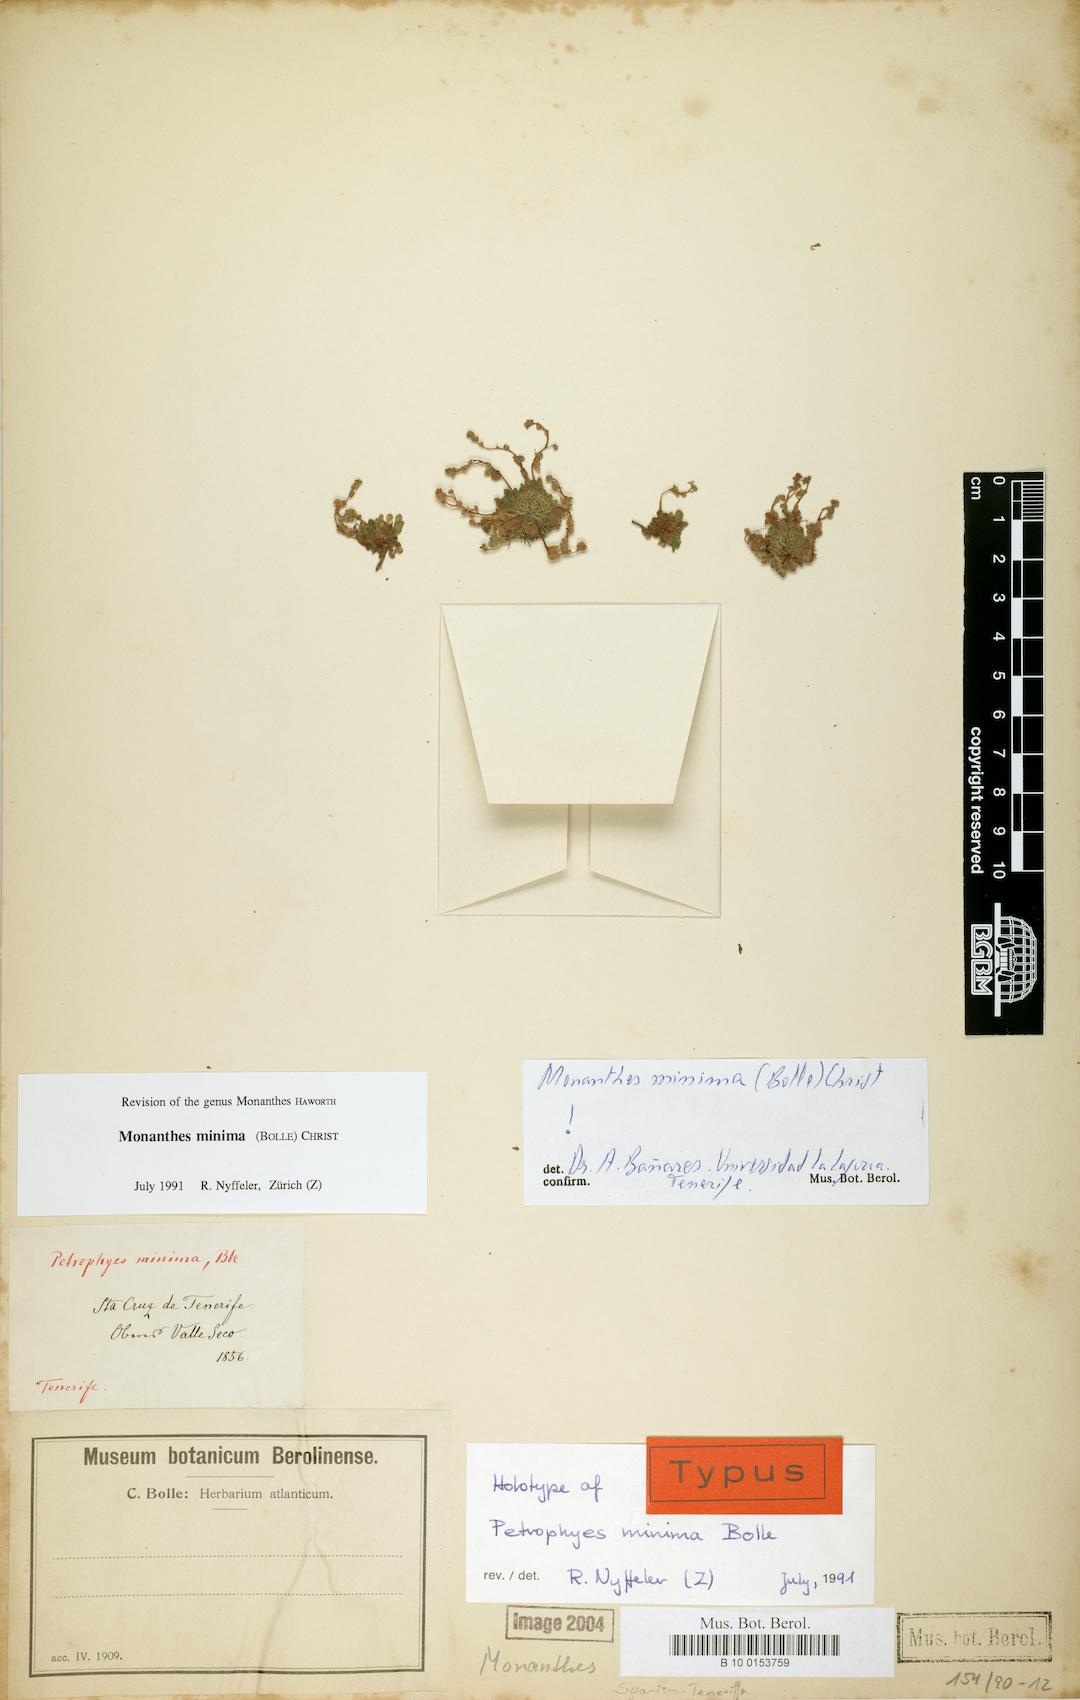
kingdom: Plantae
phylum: Tracheophyta
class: Magnoliopsida
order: Saxifragales
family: Crassulaceae
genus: Monanthes
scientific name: Monanthes minima
